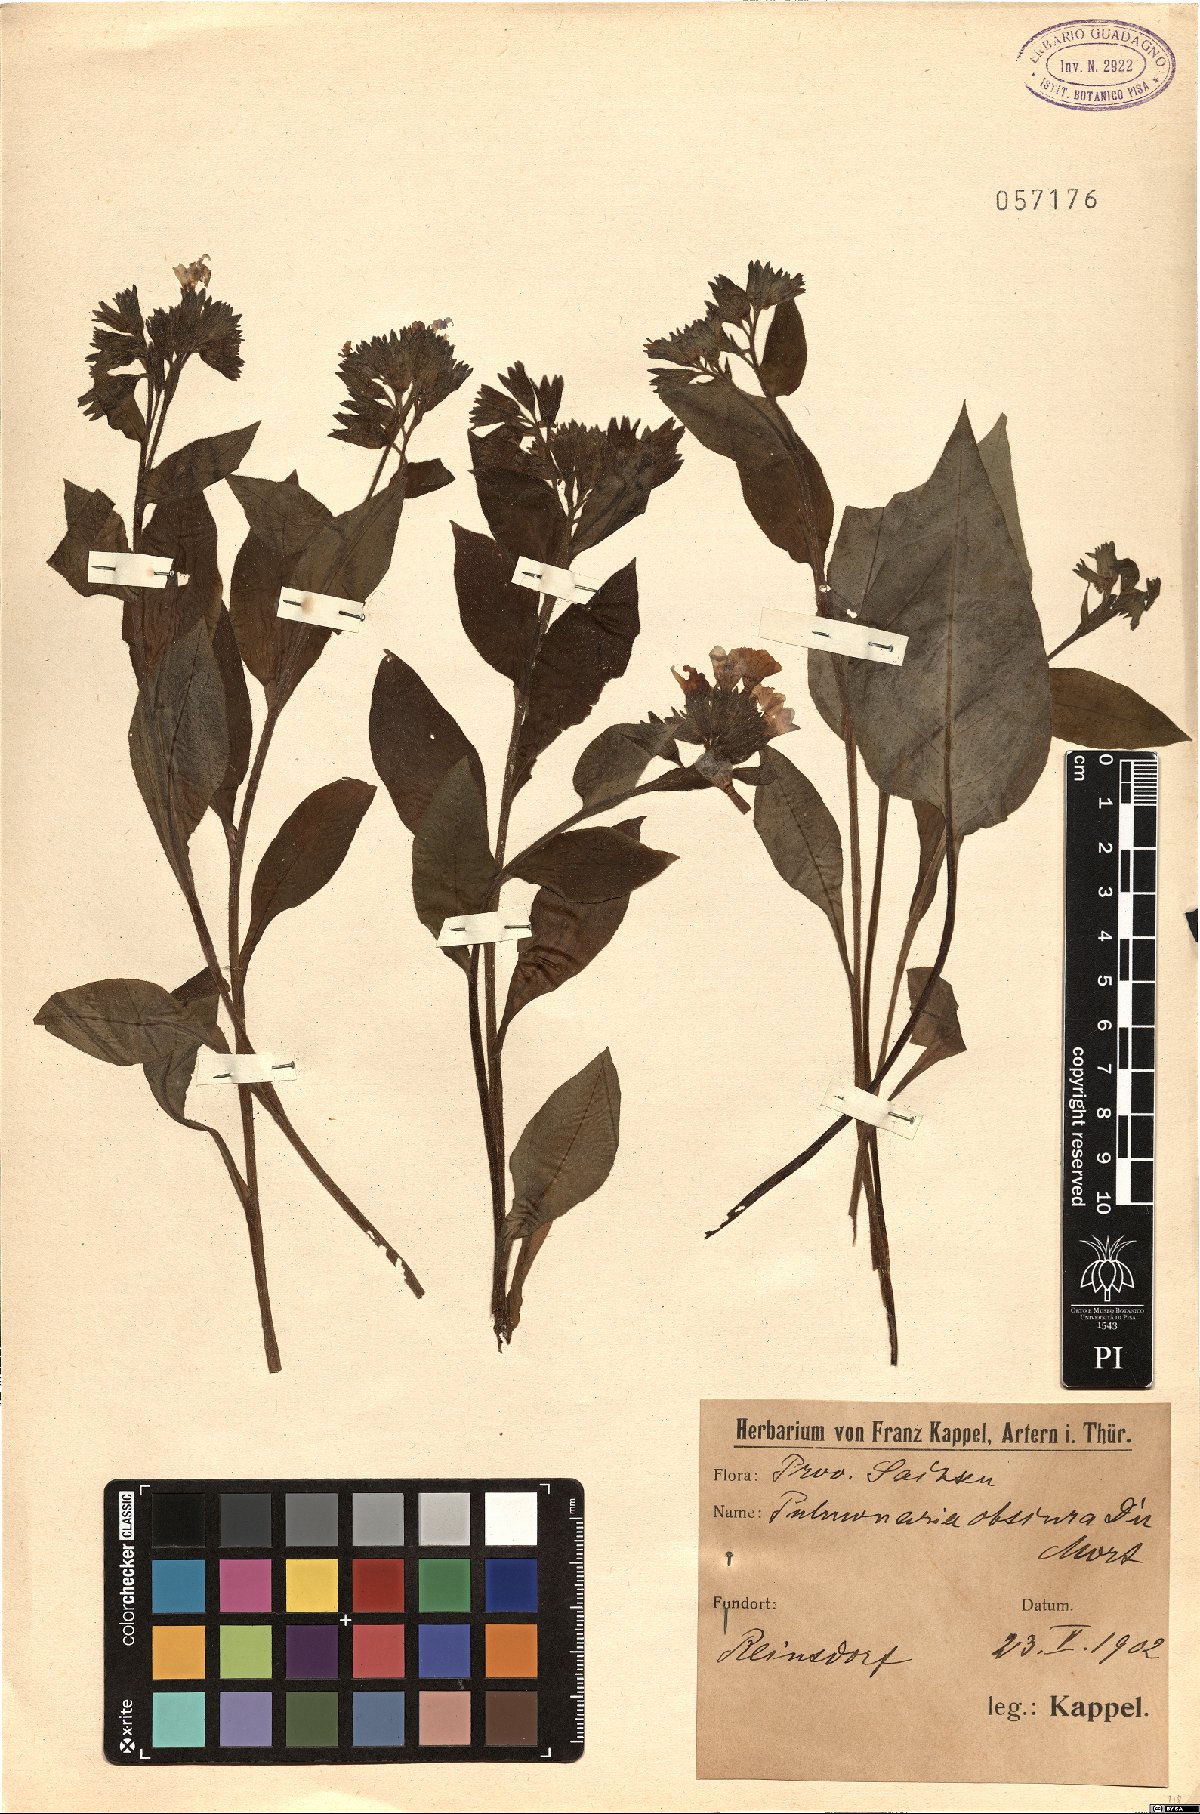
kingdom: Plantae
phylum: Tracheophyta
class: Magnoliopsida
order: Boraginales
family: Boraginaceae
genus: Pulmonaria
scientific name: Pulmonaria obscura
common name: Suffolk lungwort
